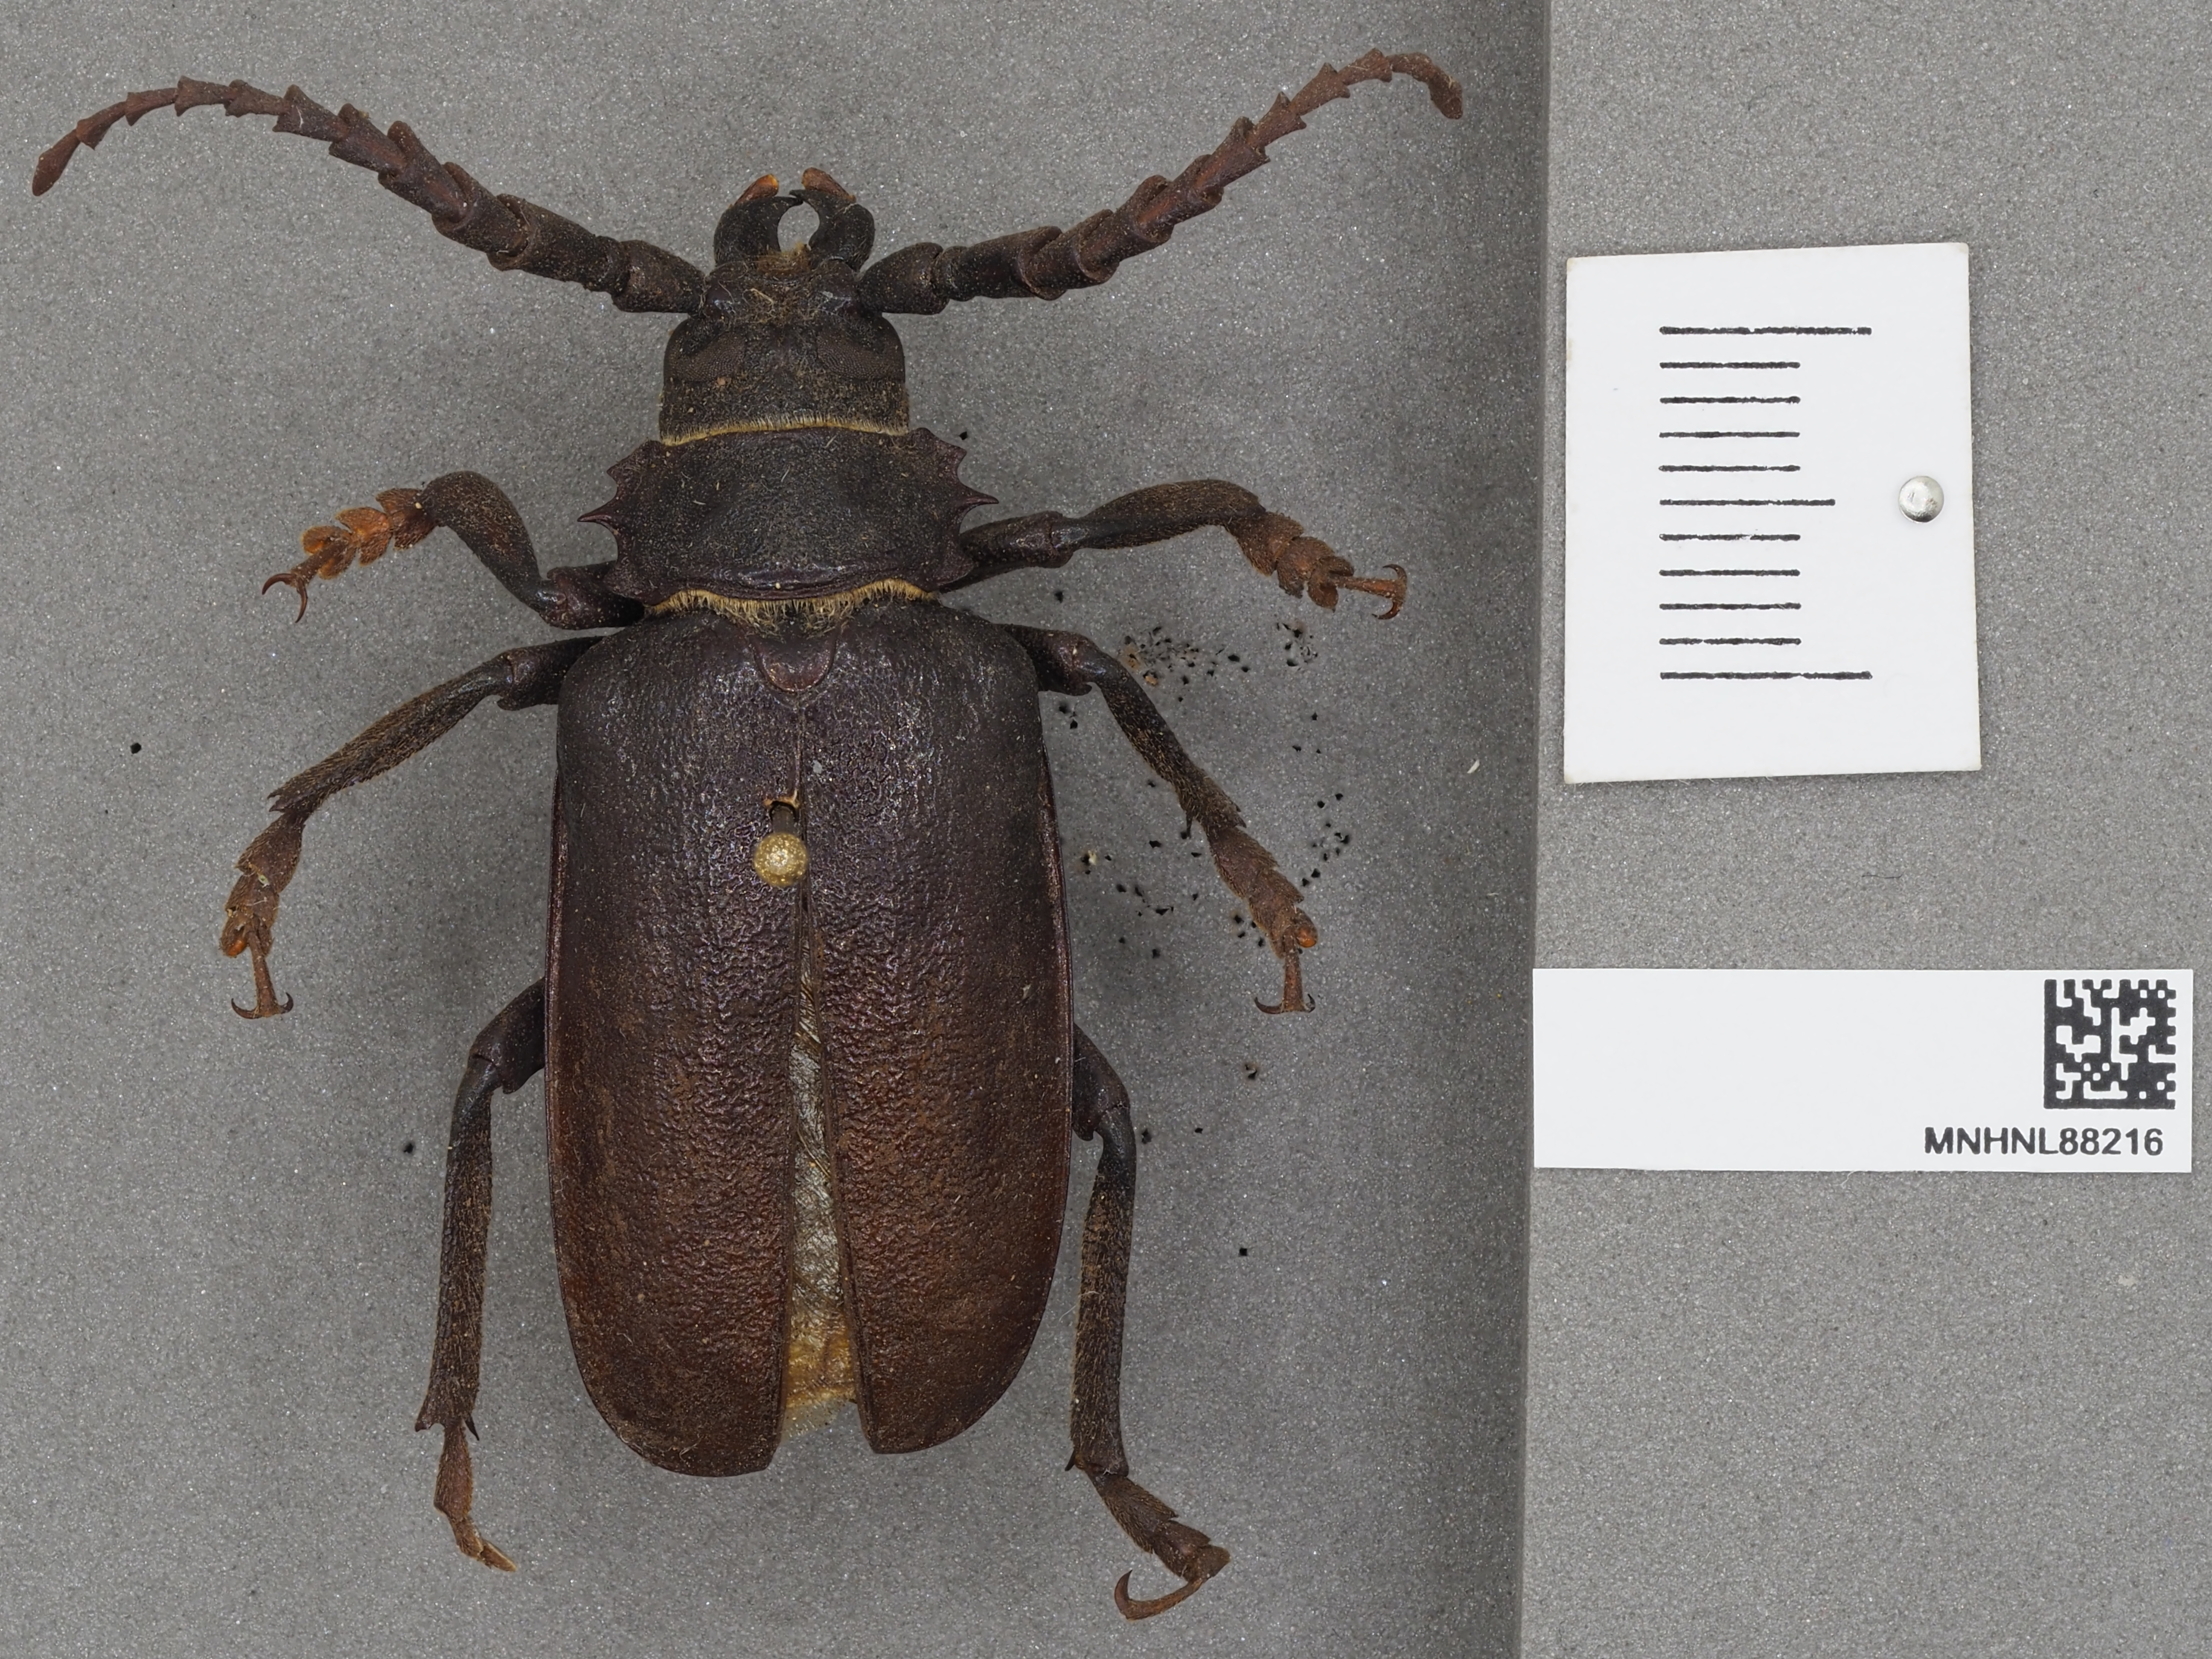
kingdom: Animalia
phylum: Arthropoda
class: Insecta
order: Coleoptera
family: Cerambycidae
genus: Prionus
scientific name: Prionus coriarius
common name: Tanner beetle
